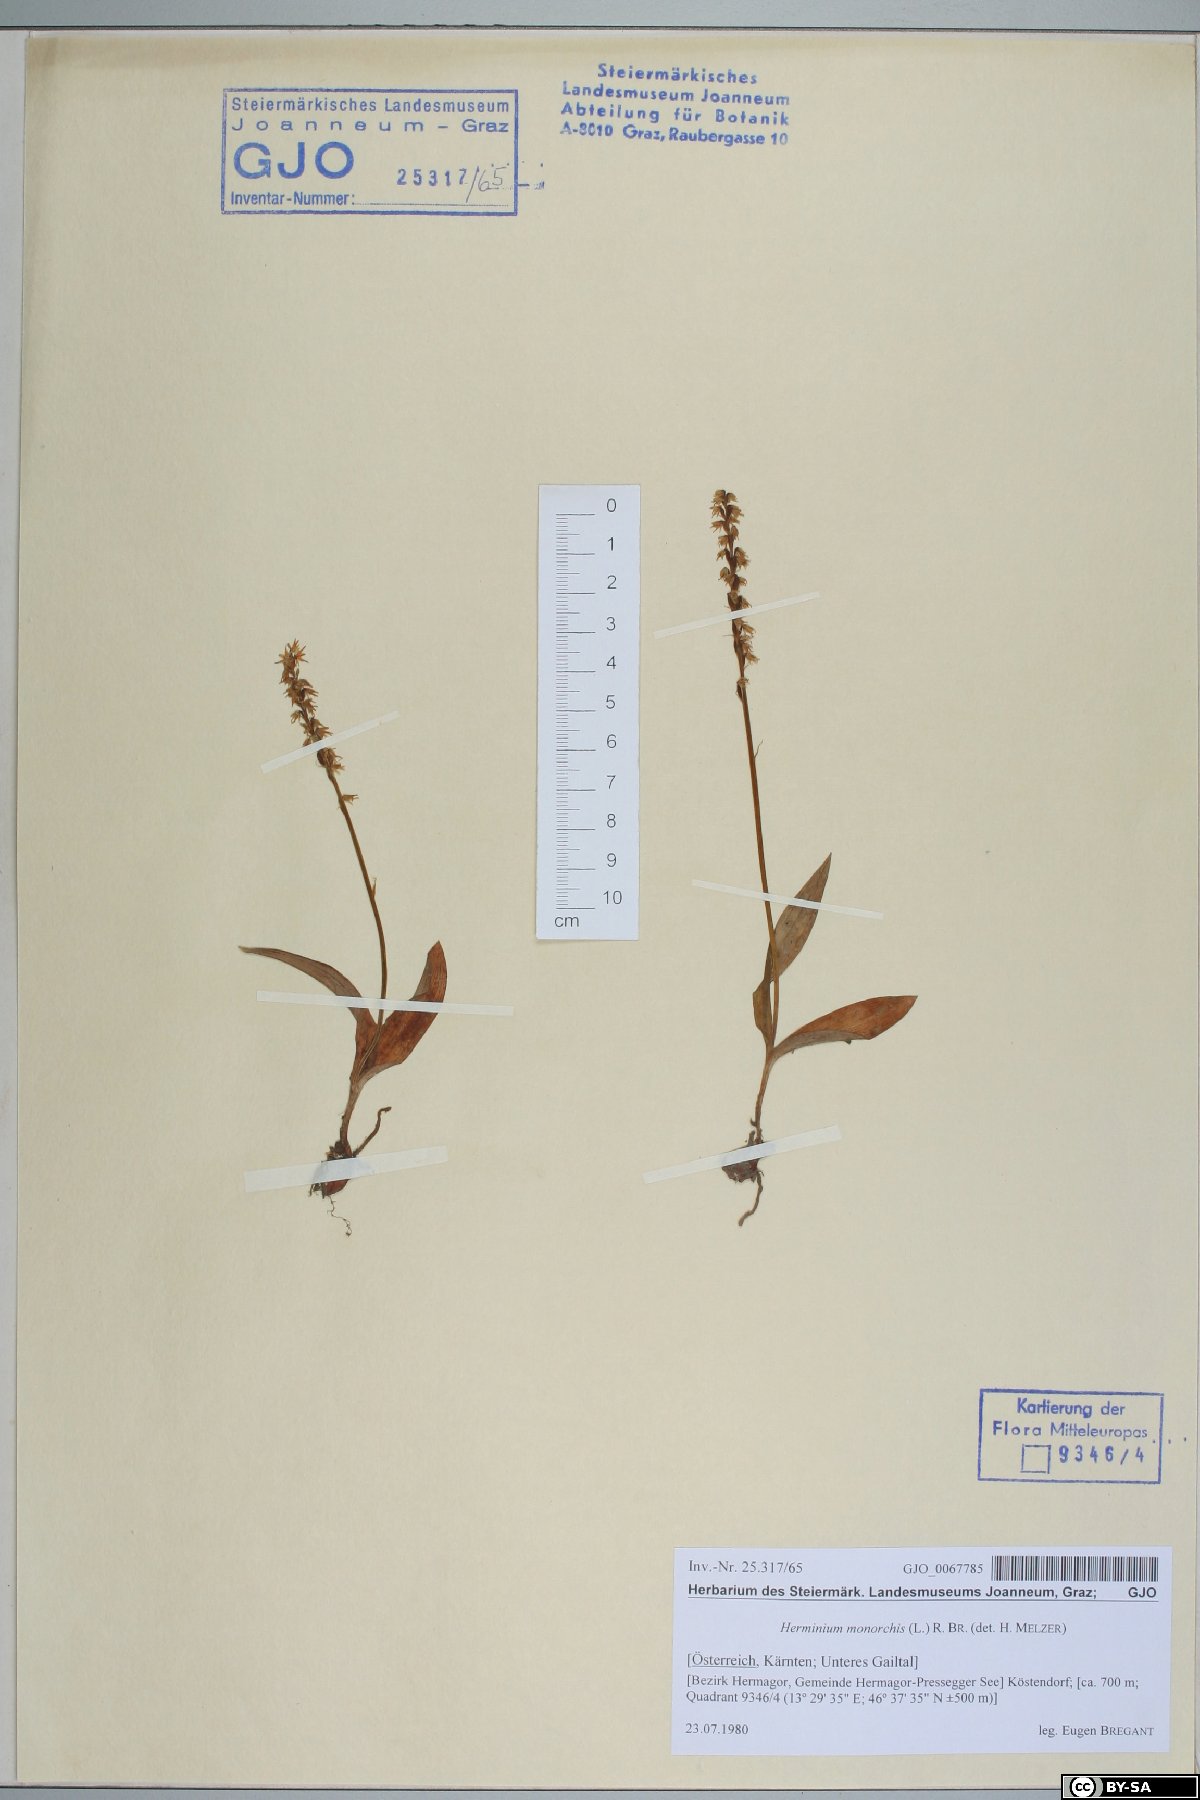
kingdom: Plantae
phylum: Tracheophyta
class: Liliopsida
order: Asparagales
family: Orchidaceae
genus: Herminium
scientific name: Herminium monorchis
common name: Musk orchid
